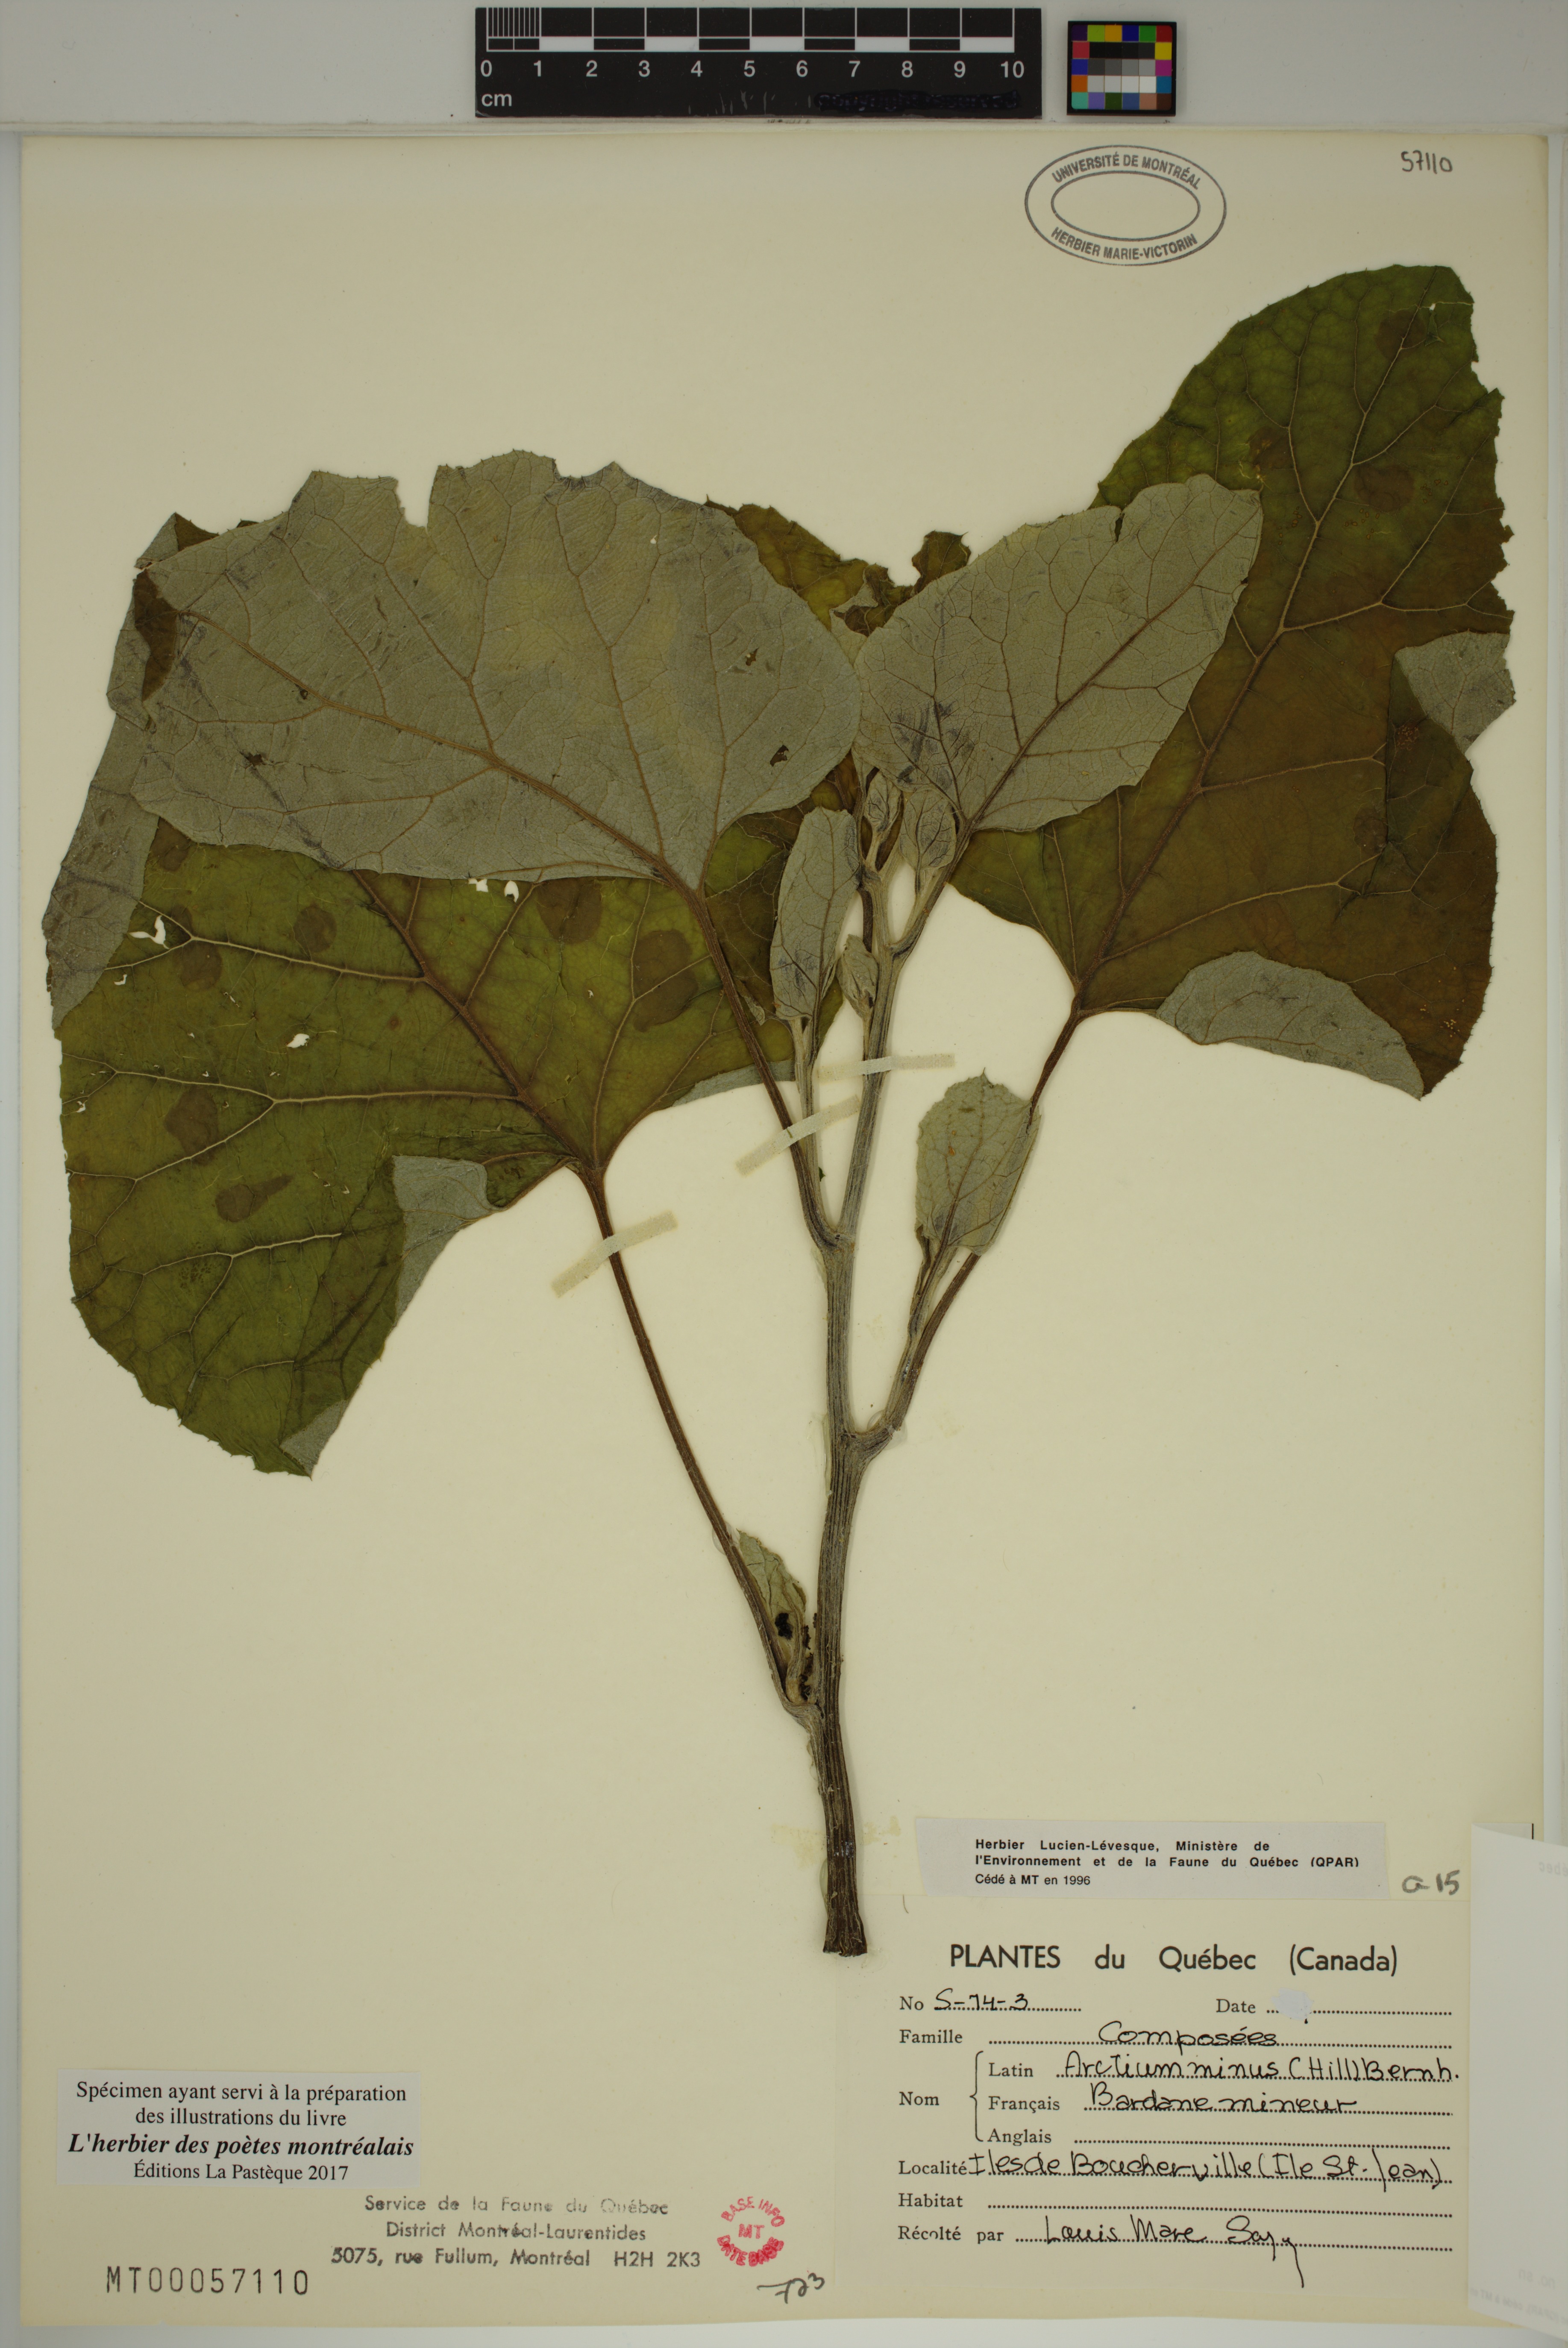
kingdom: Plantae
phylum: Tracheophyta
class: Magnoliopsida
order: Asterales
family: Asteraceae
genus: Arctium
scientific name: Arctium minus
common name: Lesser burdock
